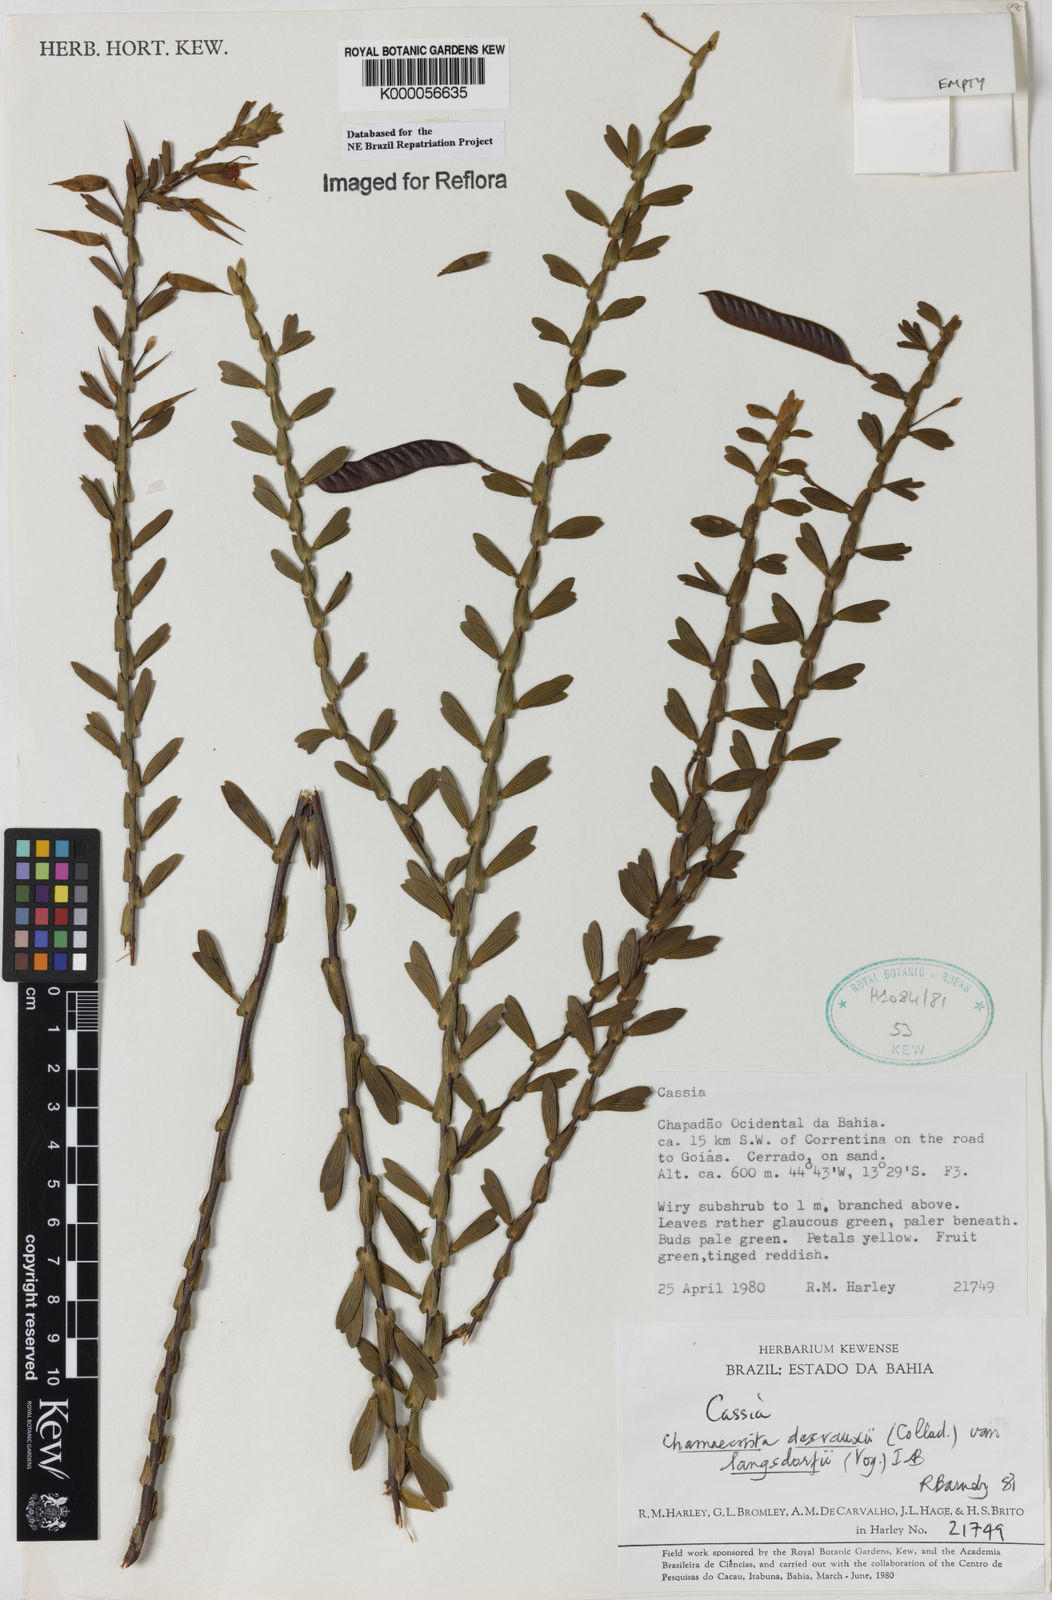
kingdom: Plantae
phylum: Tracheophyta
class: Magnoliopsida
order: Fabales
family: Fabaceae
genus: Chamaecrista
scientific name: Chamaecrista langsdorffii
